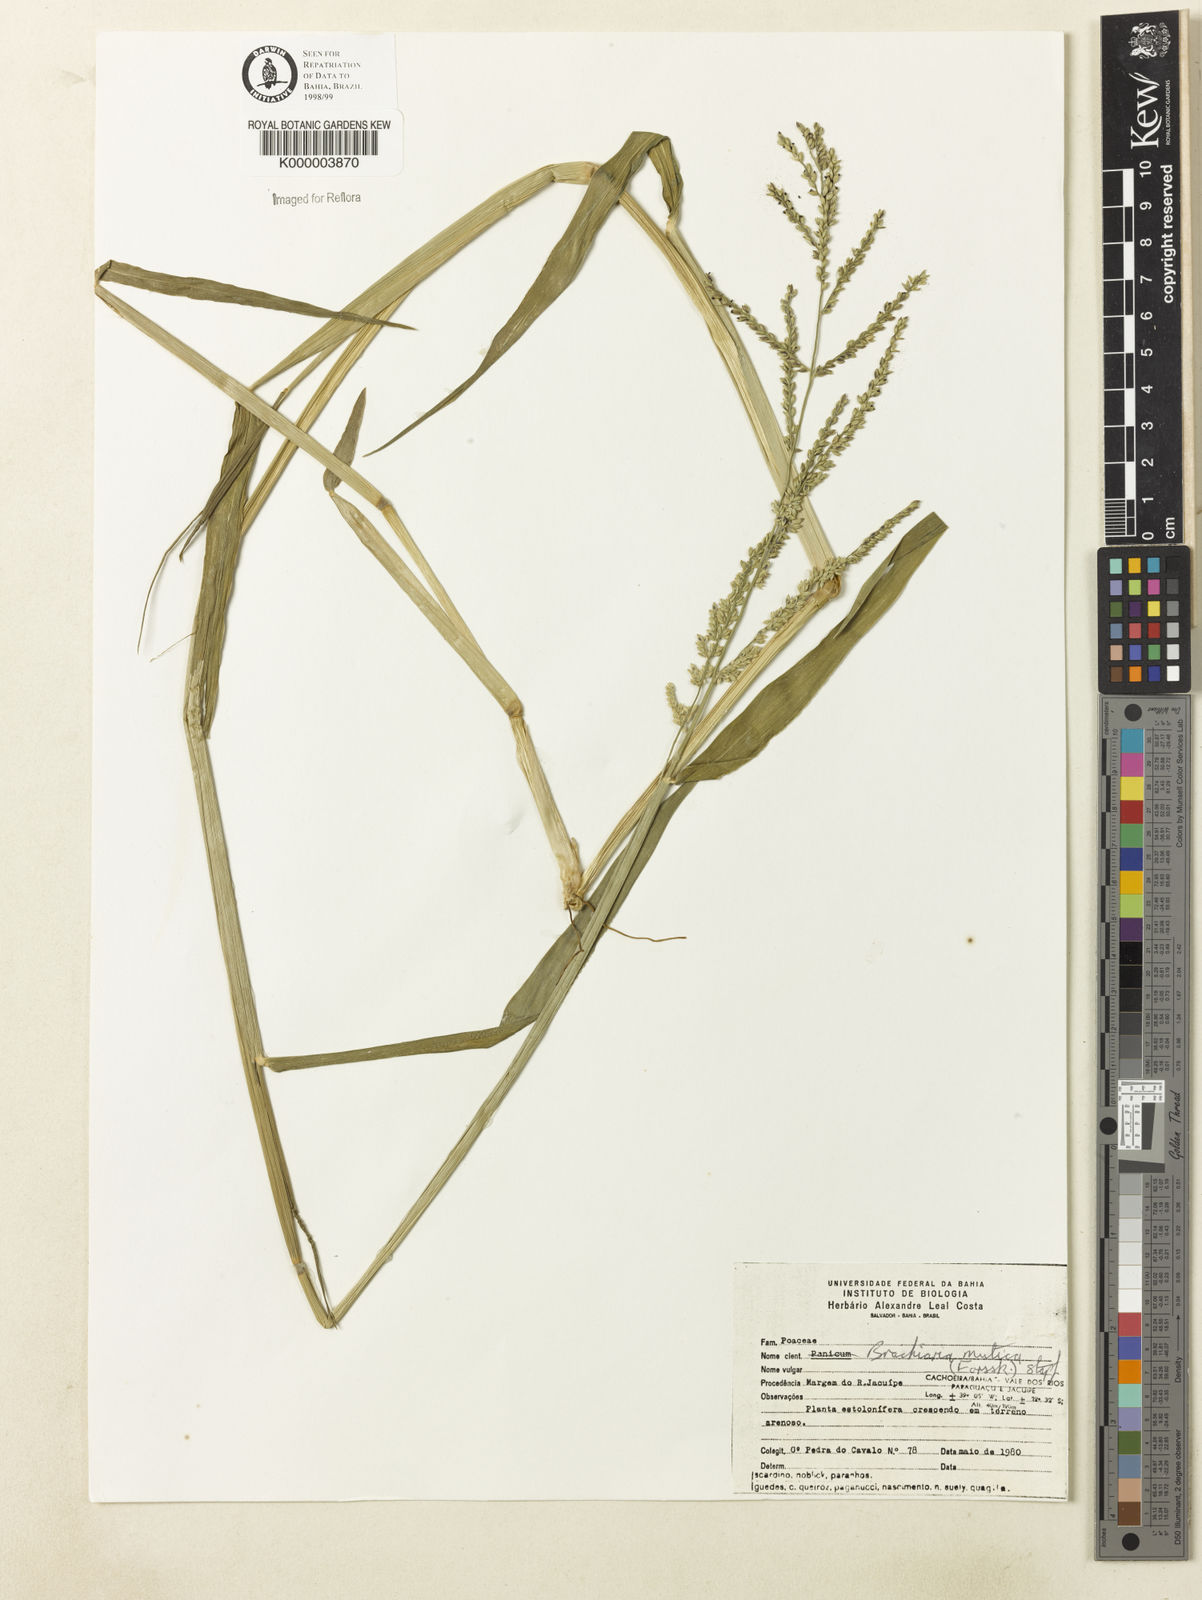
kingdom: Plantae
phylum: Tracheophyta
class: Liliopsida
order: Poales
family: Poaceae
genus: Urochloa
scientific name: Urochloa mutica
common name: Para grass
